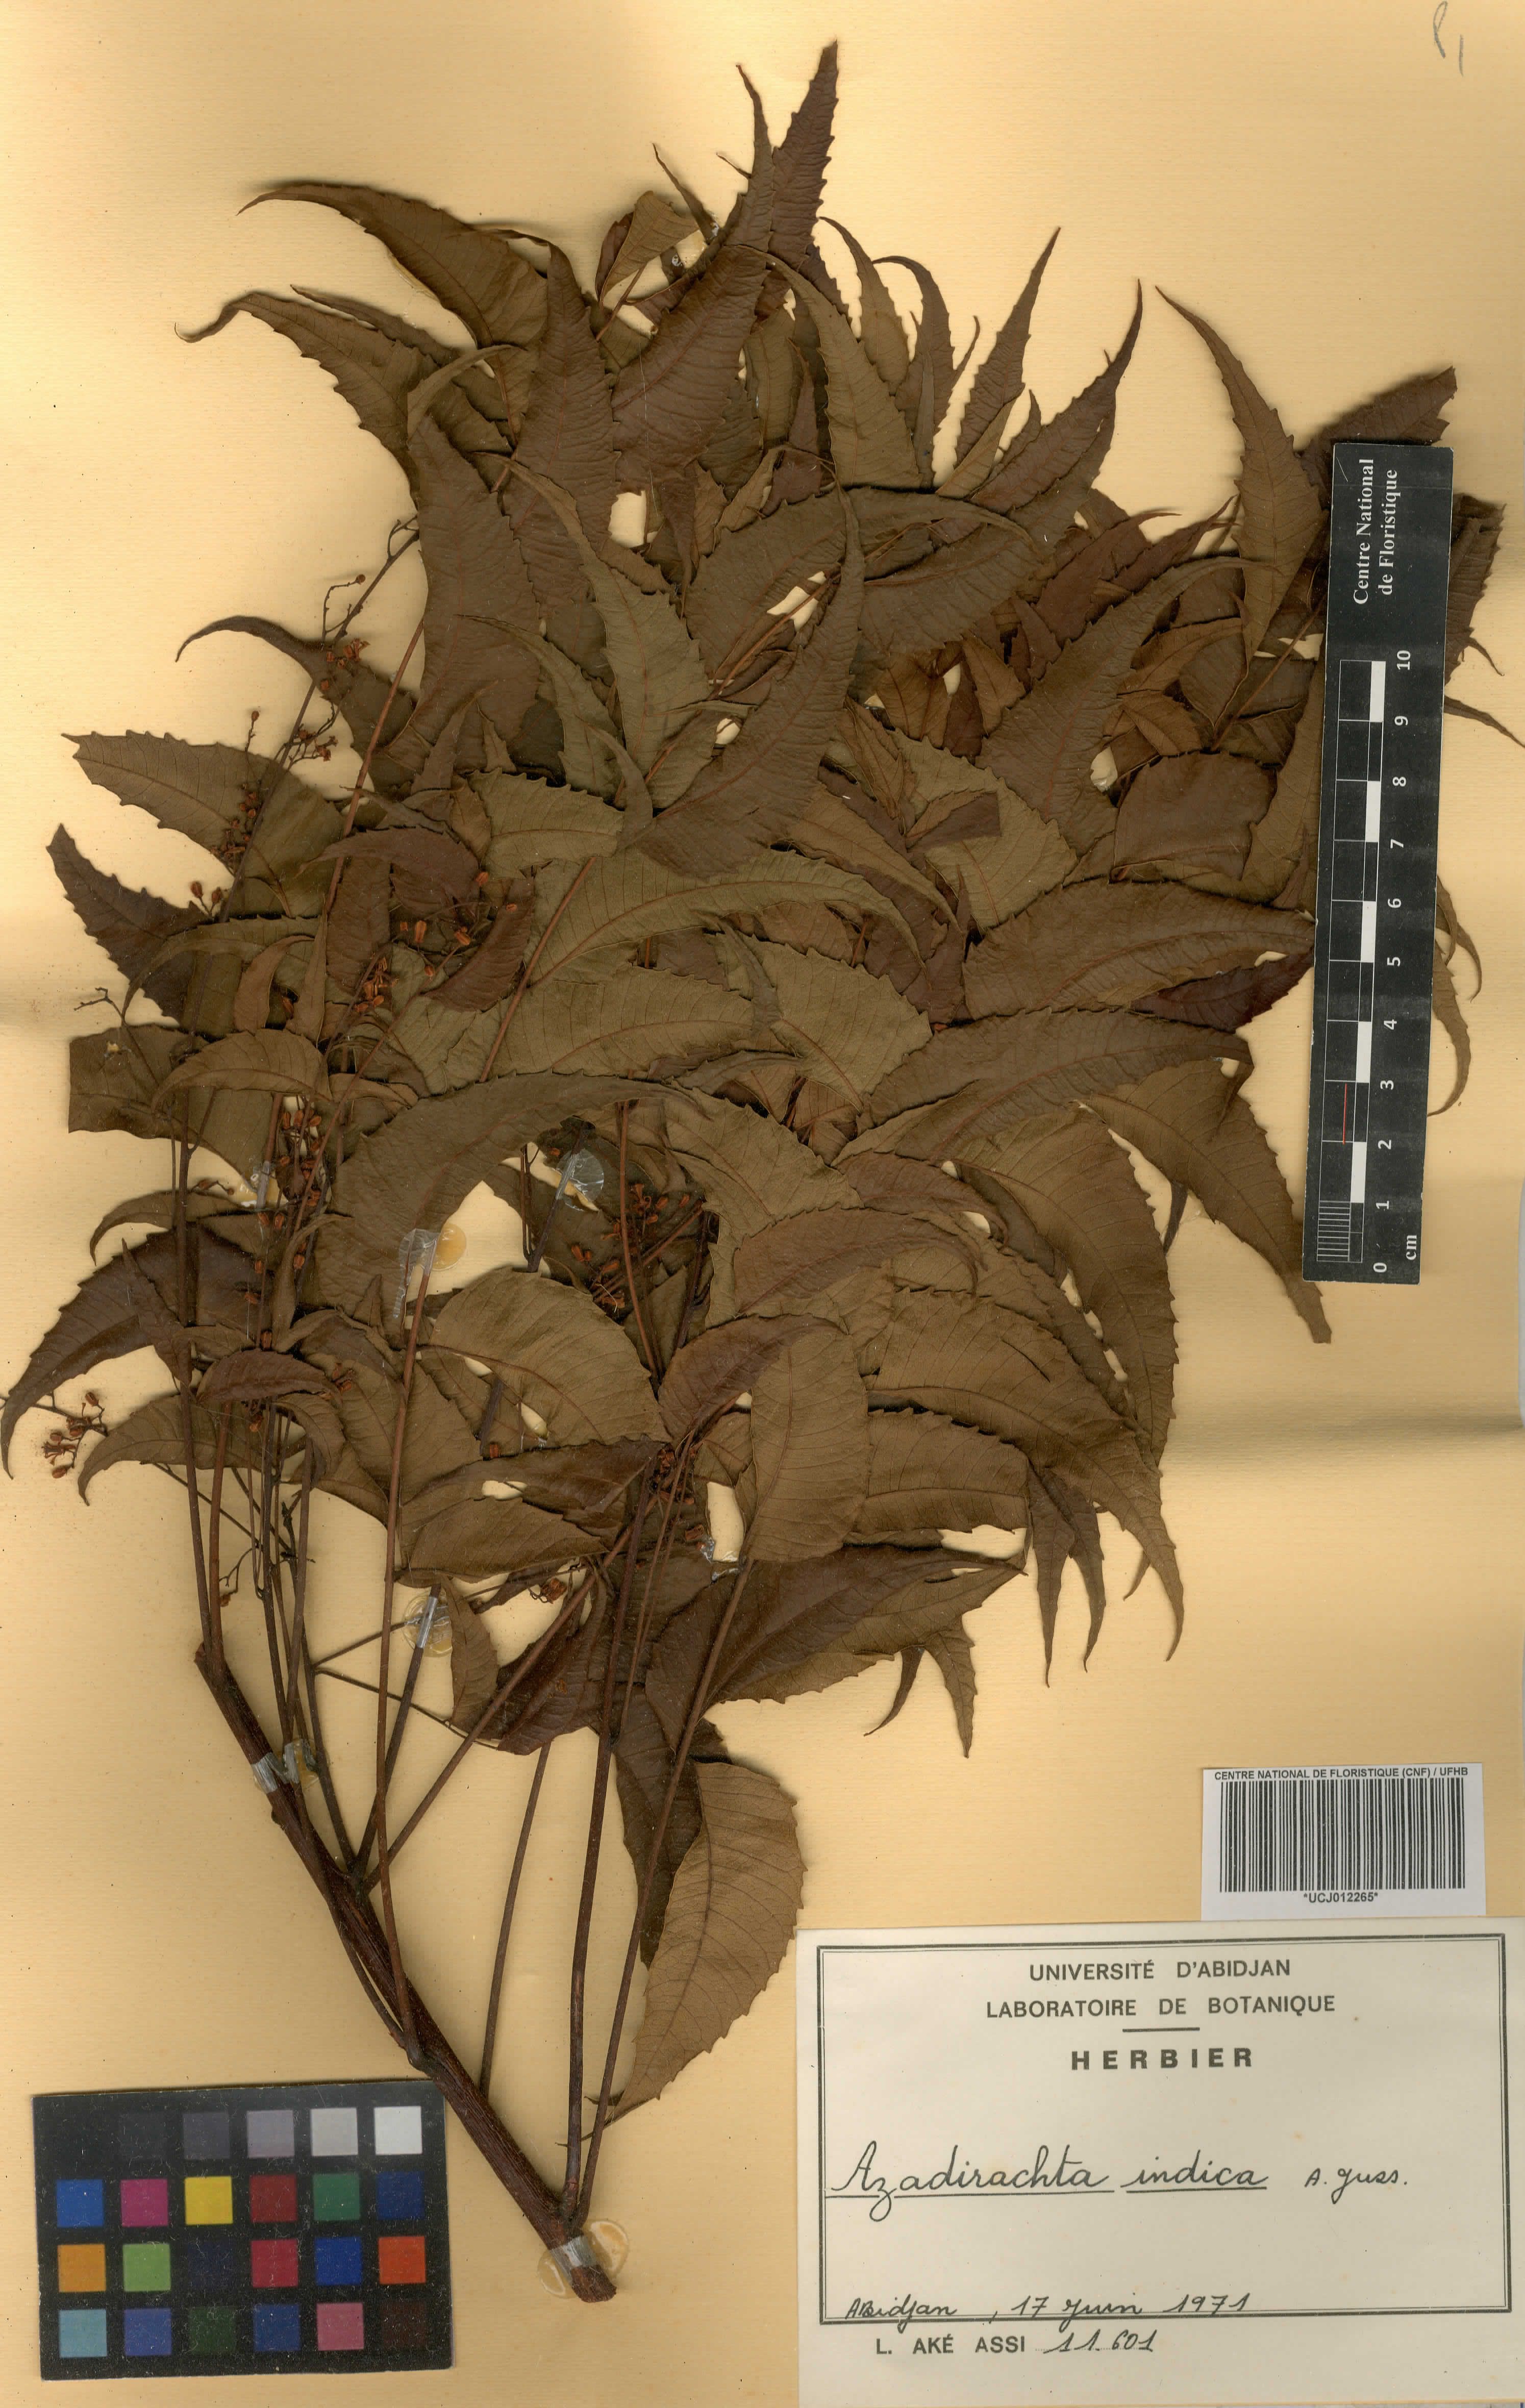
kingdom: Plantae
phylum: Tracheophyta
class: Magnoliopsida
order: Sapindales
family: Meliaceae
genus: Azadirachta
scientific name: Azadirachta indica
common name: Neem
